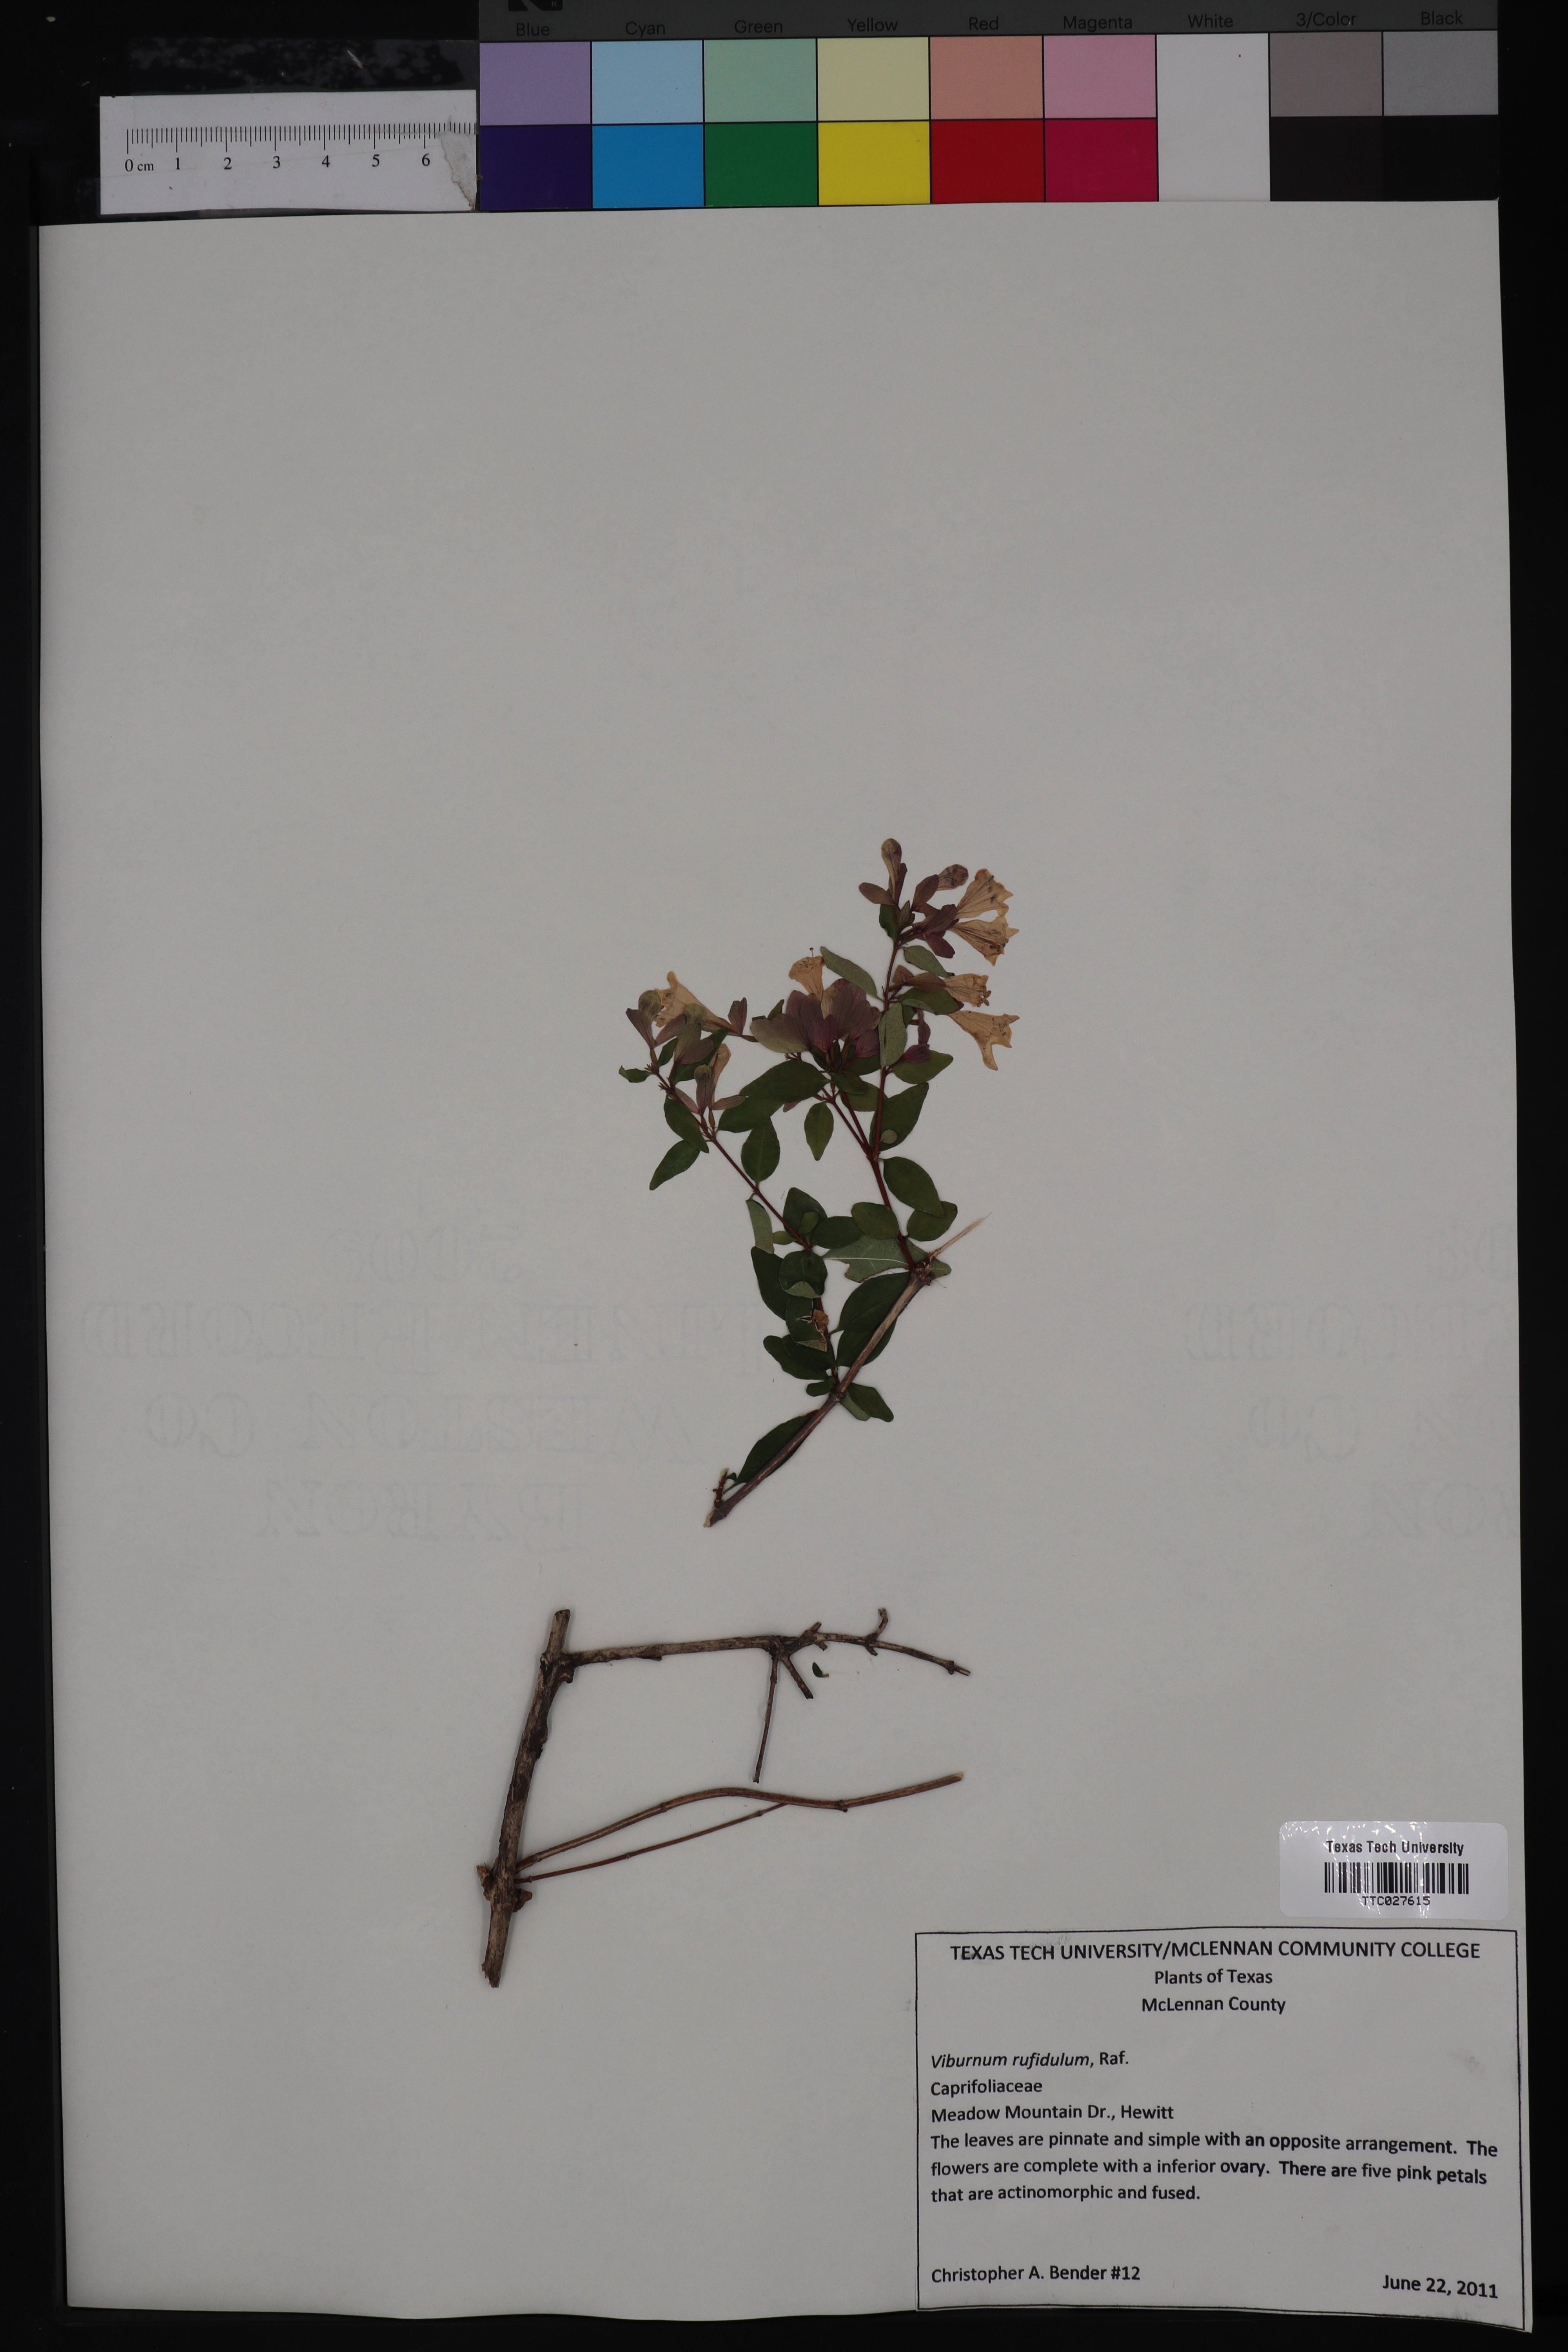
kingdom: Plantae
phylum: Tracheophyta
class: Magnoliopsida
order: Dipsacales
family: Viburnaceae
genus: Viburnum
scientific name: Viburnum rufidulum
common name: Blue haw
